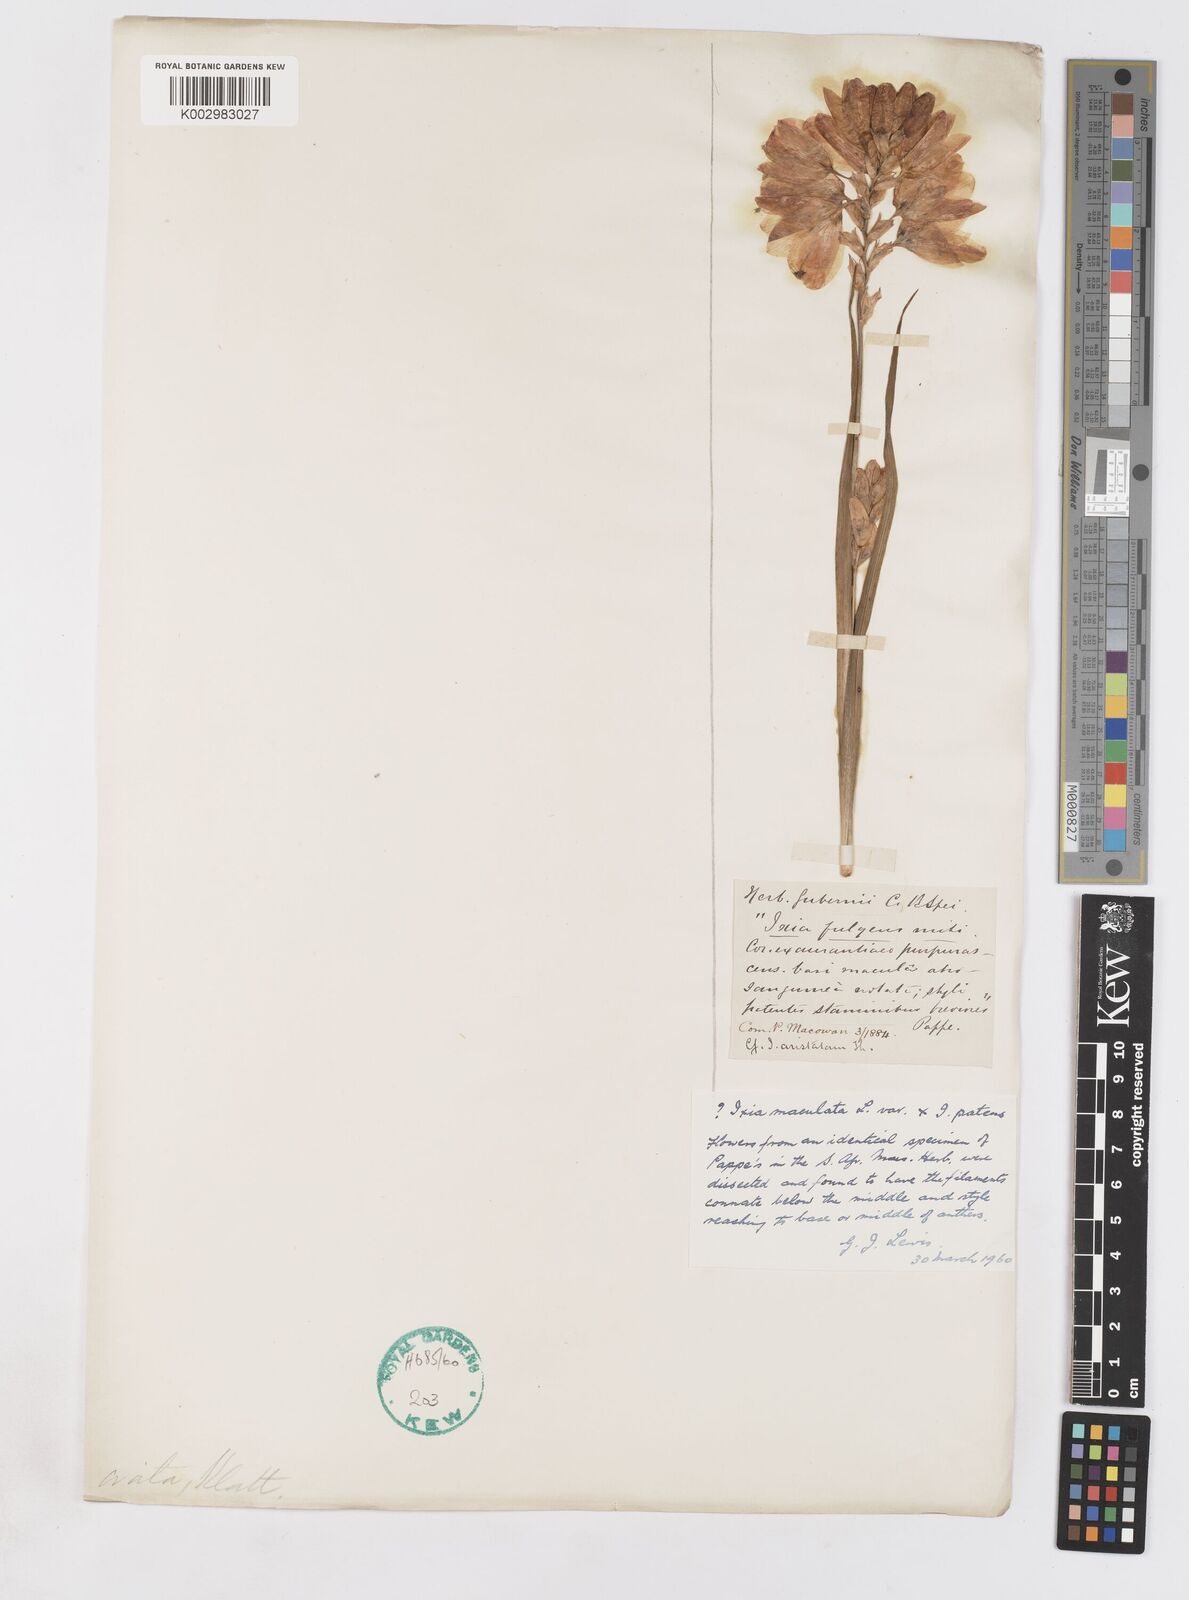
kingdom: Plantae
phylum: Tracheophyta
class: Liliopsida
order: Asparagales
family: Iridaceae
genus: Ixia
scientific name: Ixia polystachya
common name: White-and-yellow-flower cornlily
